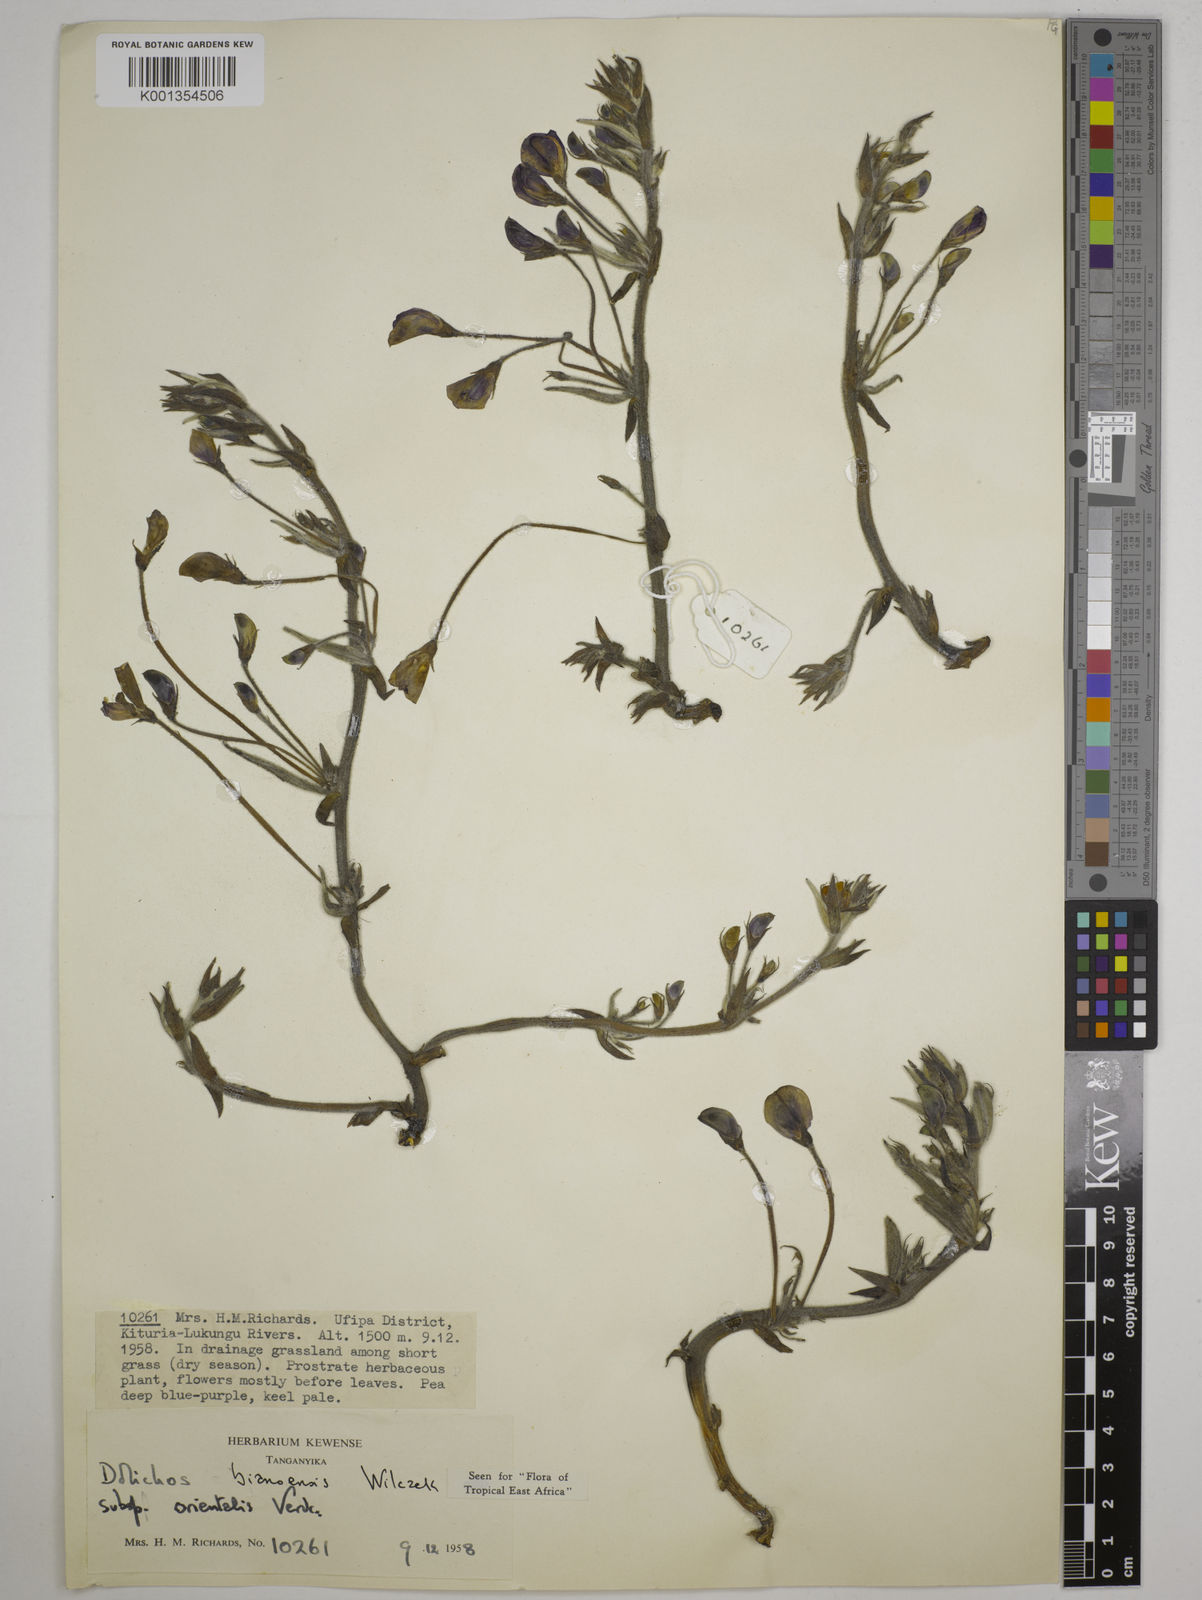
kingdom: Plantae
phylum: Tracheophyta
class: Magnoliopsida
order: Fabales
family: Fabaceae
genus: Dolichos
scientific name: Dolichos
